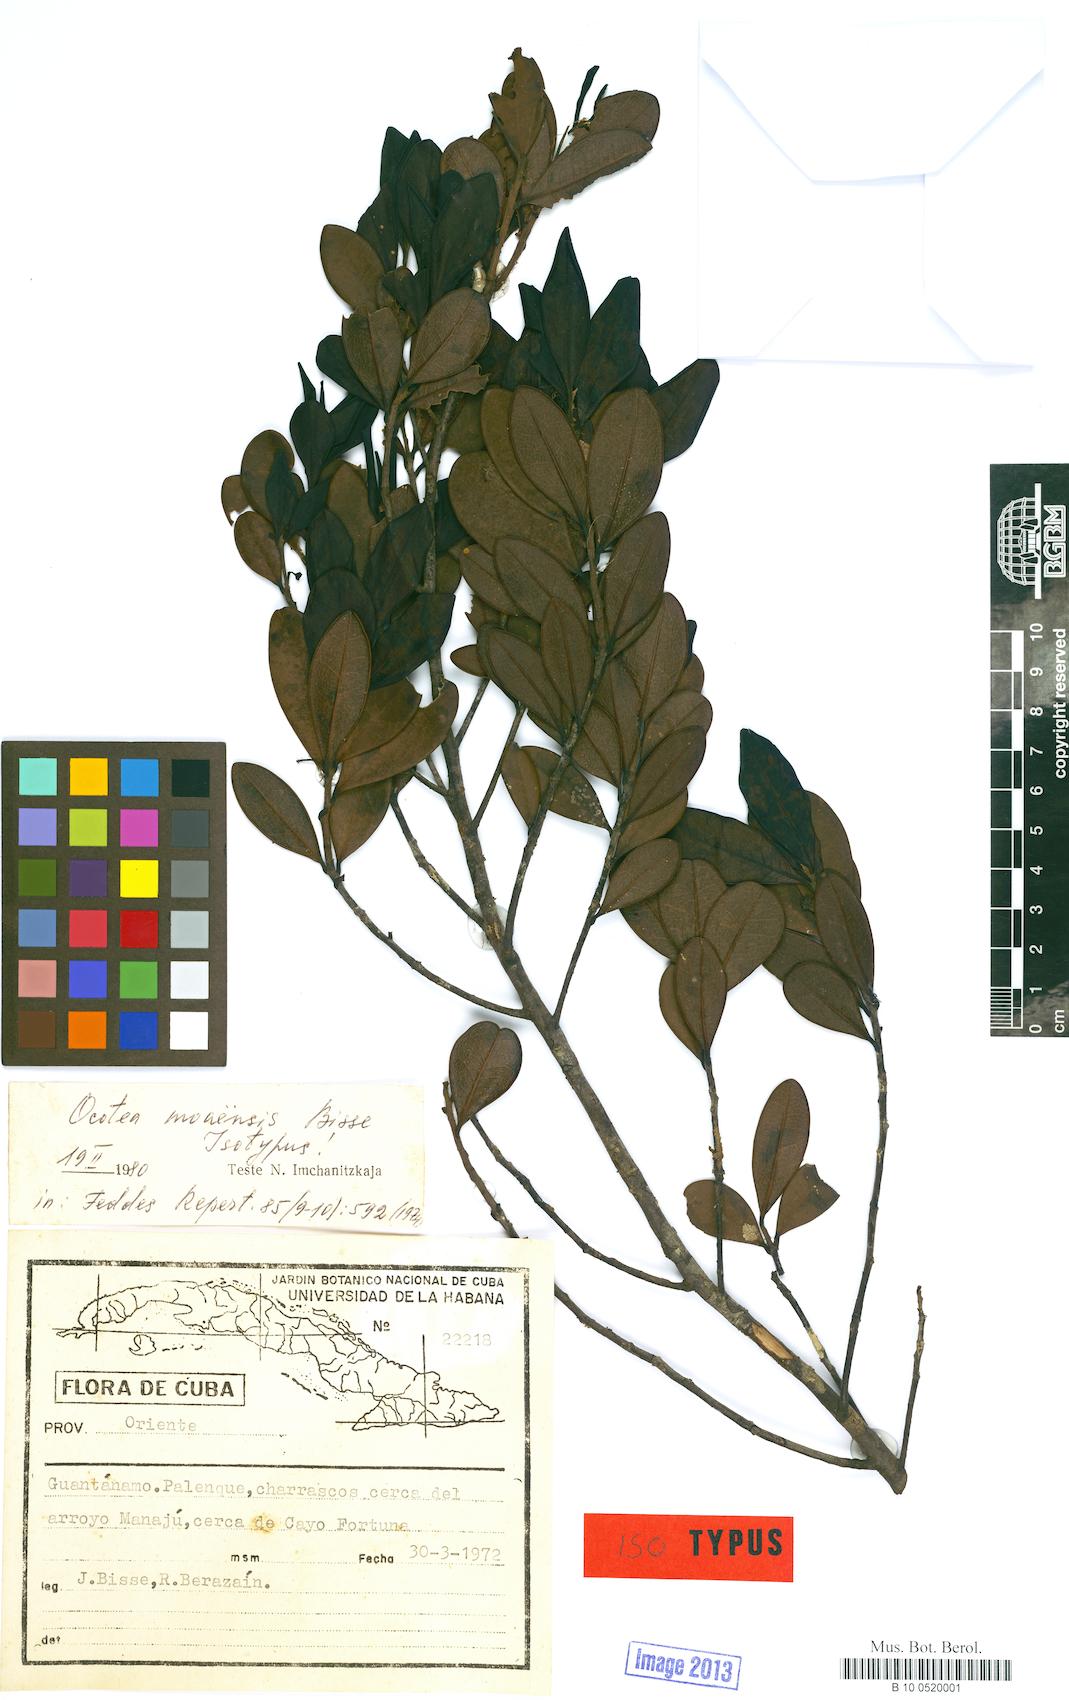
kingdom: Plantae
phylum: Tracheophyta
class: Magnoliopsida
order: Laurales
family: Lauraceae
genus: Ocotea
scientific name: Ocotea moaensis
